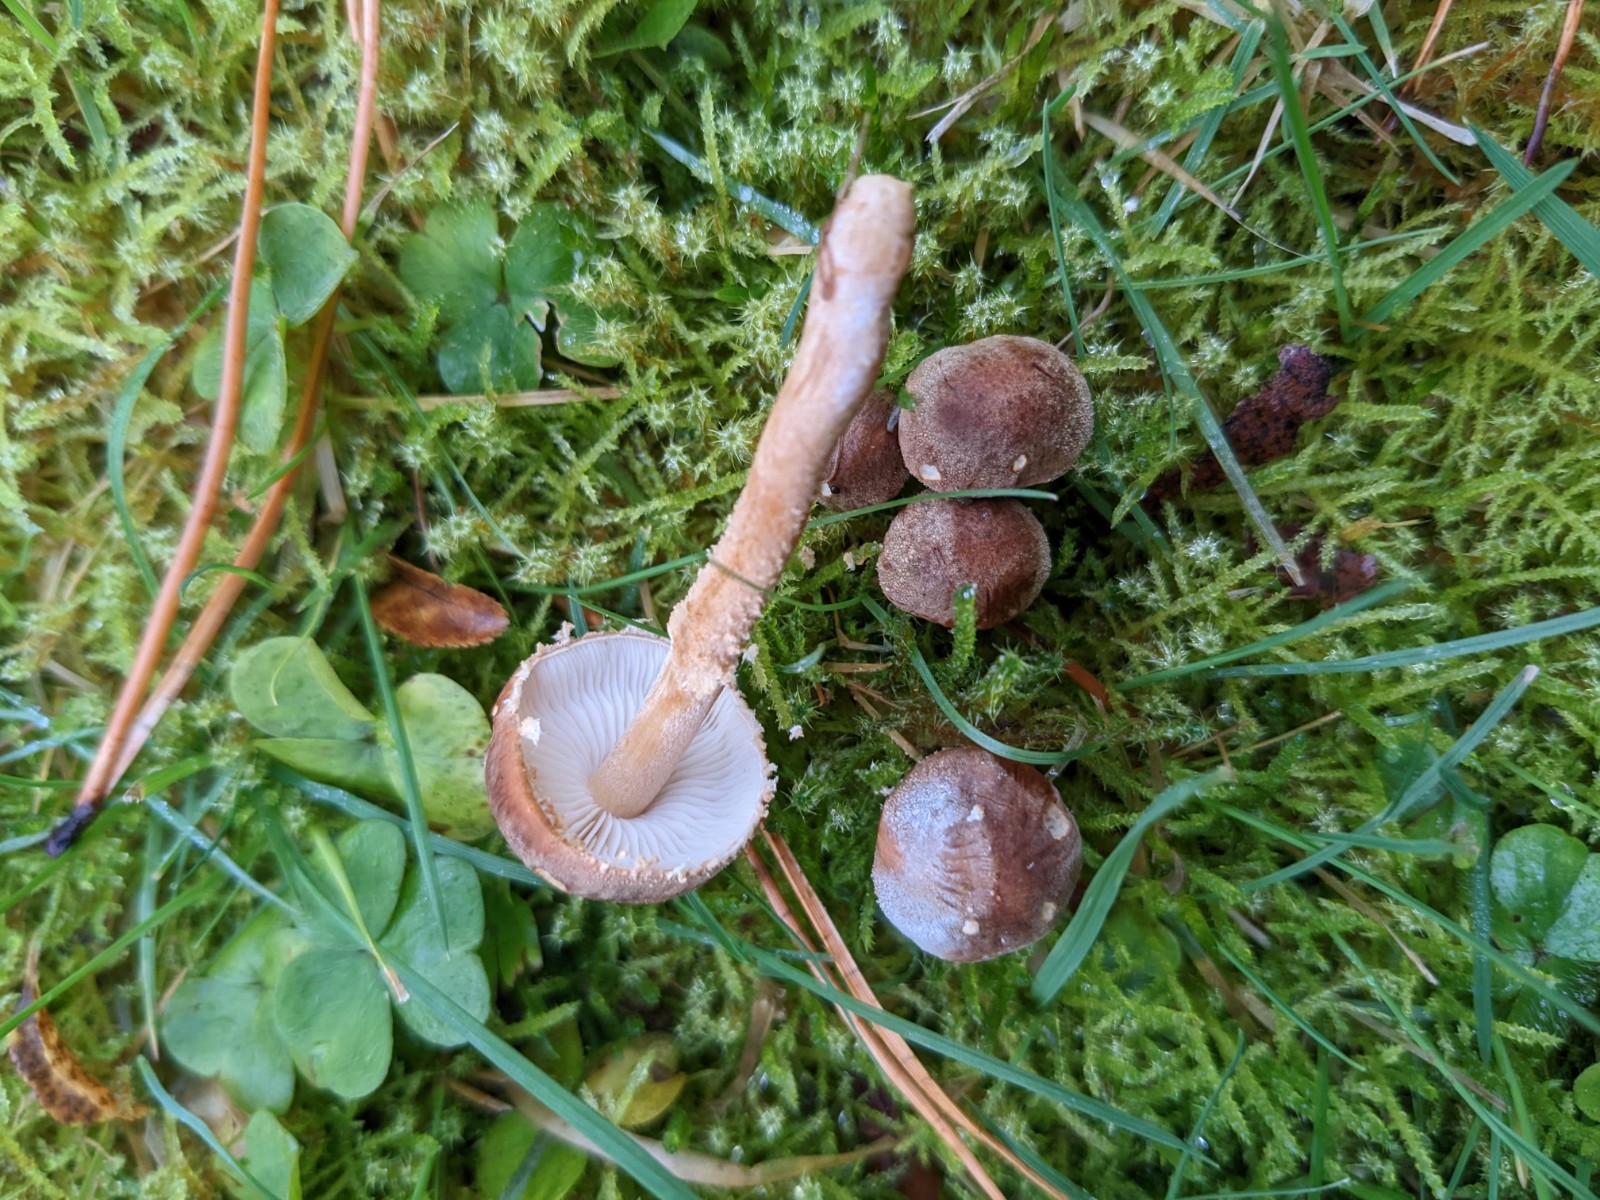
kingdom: Fungi
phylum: Basidiomycota
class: Agaricomycetes
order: Agaricales
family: Tricholomataceae
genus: Cystoderma
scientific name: Cystoderma simulatum
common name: ved-grynhat
